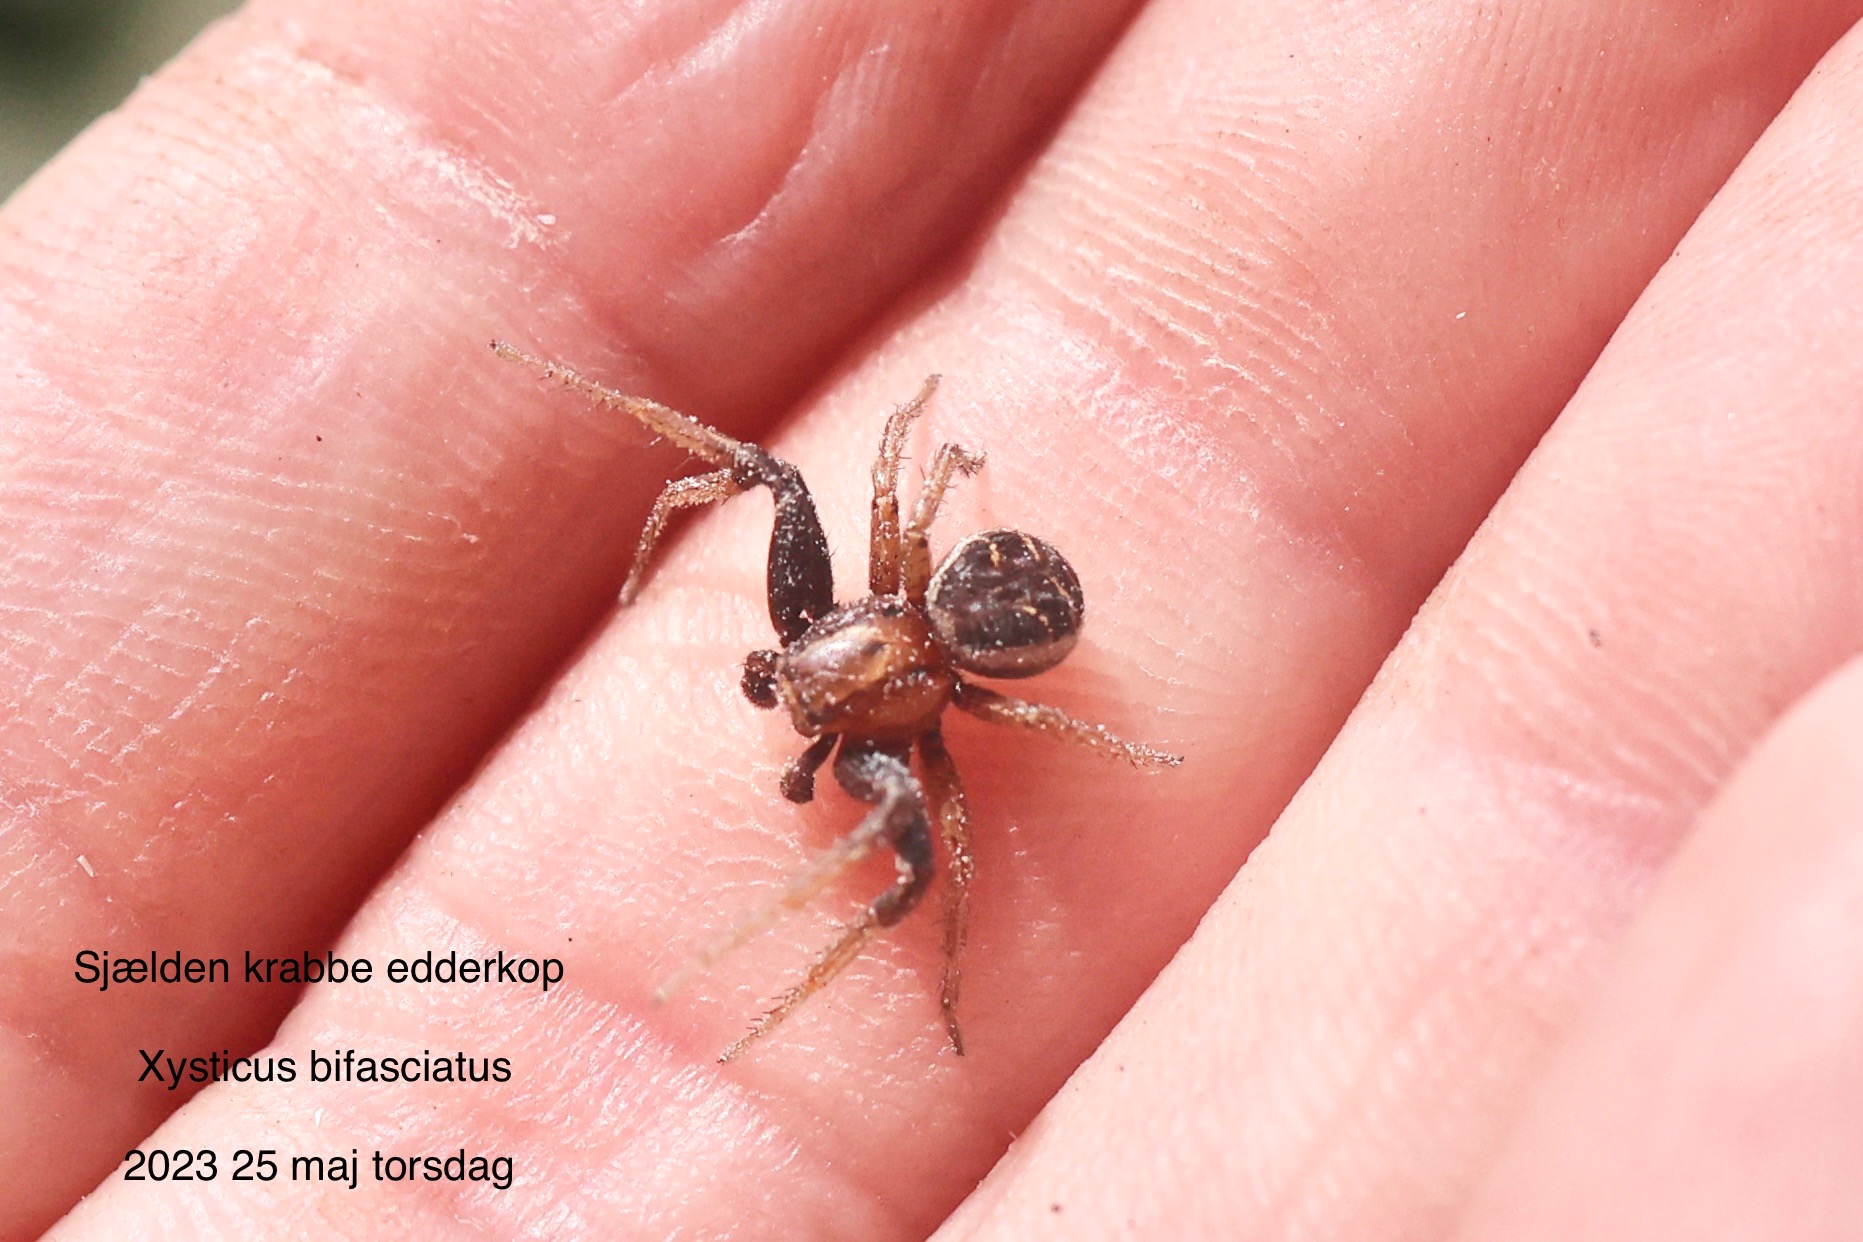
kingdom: Animalia
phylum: Arthropoda
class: Arachnida
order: Araneae
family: Thomisidae
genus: Xysticus
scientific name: Xysticus bifasciatus
